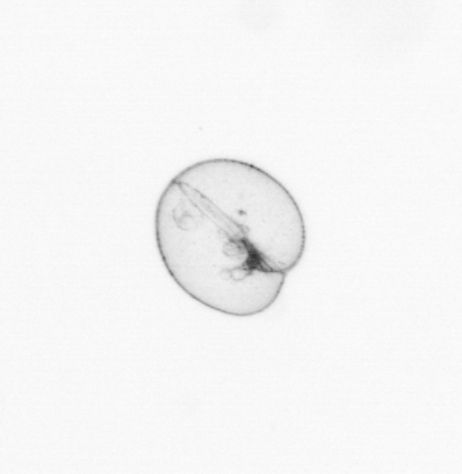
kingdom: Chromista
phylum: Myzozoa
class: Dinophyceae
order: Noctilucales
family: Noctilucaceae
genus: Noctiluca
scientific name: Noctiluca scintillans
